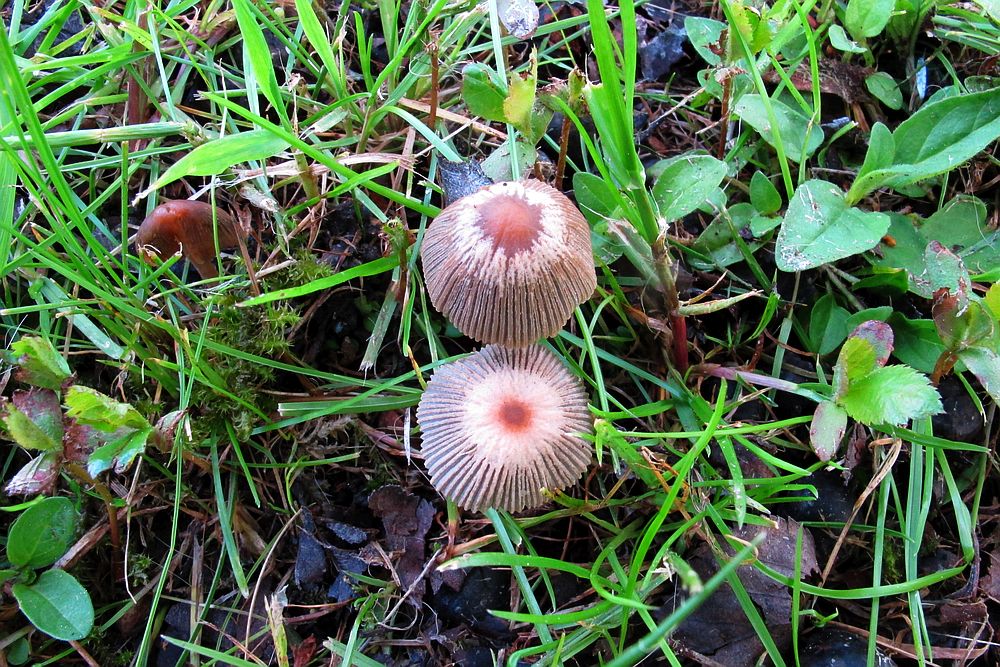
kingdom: Fungi
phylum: Basidiomycota
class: Agaricomycetes
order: Agaricales
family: Psathyrellaceae
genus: Parasola
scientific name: Parasola auricoma
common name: hansens hjulhat
